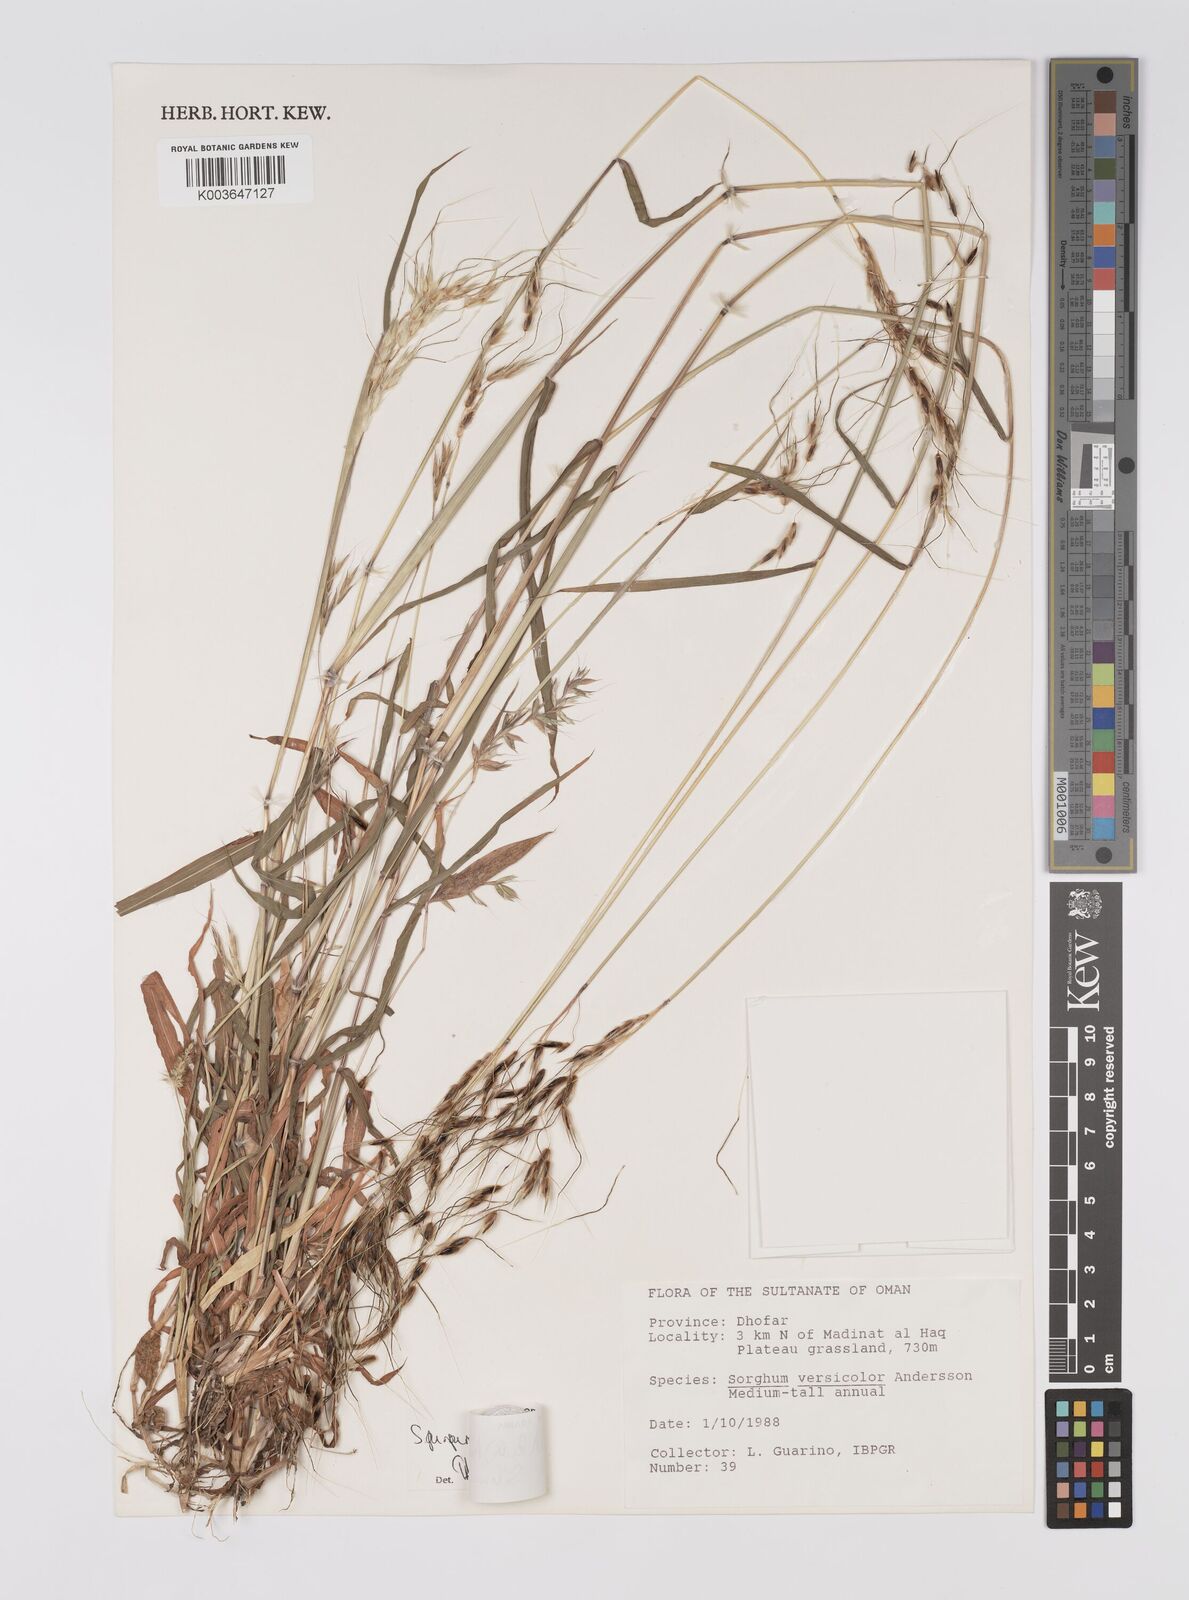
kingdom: Plantae
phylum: Tracheophyta
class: Liliopsida
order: Poales
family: Poaceae
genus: Sarga
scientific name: Sarga purpureosericea
